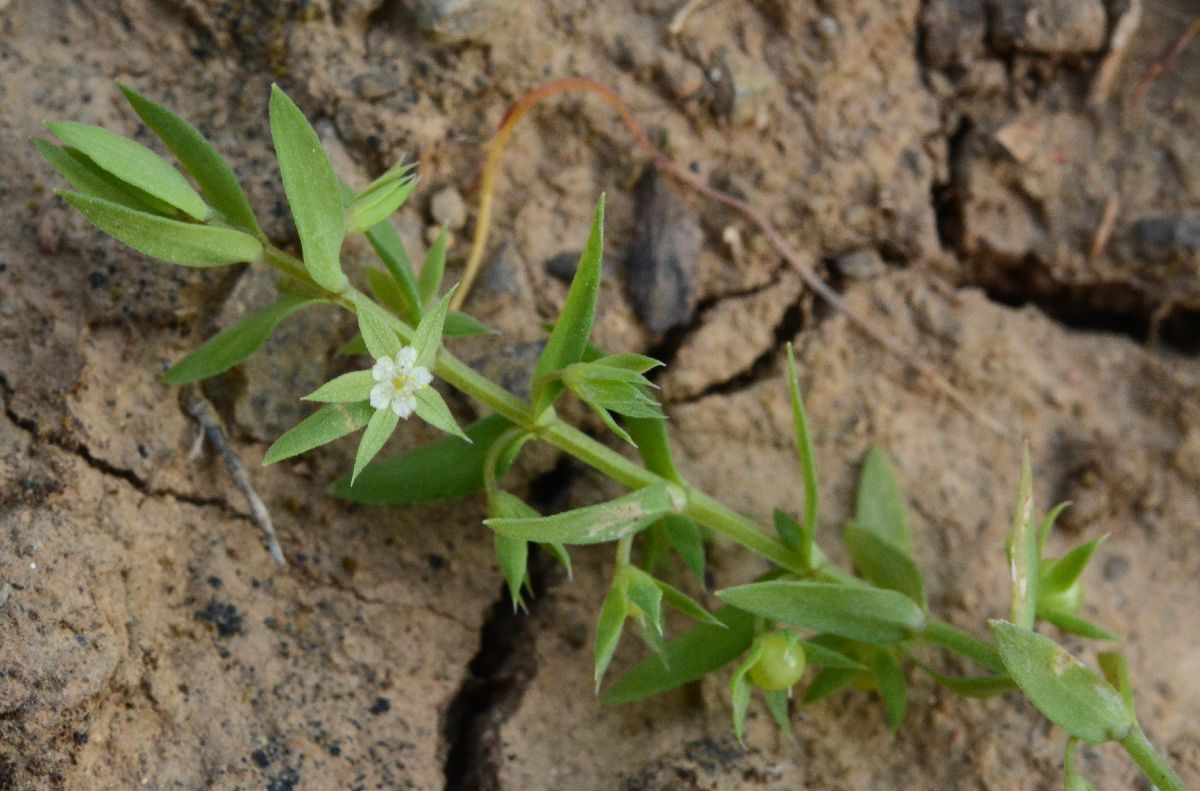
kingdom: Plantae
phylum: Tracheophyta
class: Magnoliopsida
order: Ericales
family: Primulaceae
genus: Lysimachia
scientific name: Lysimachia linum-stellatum
